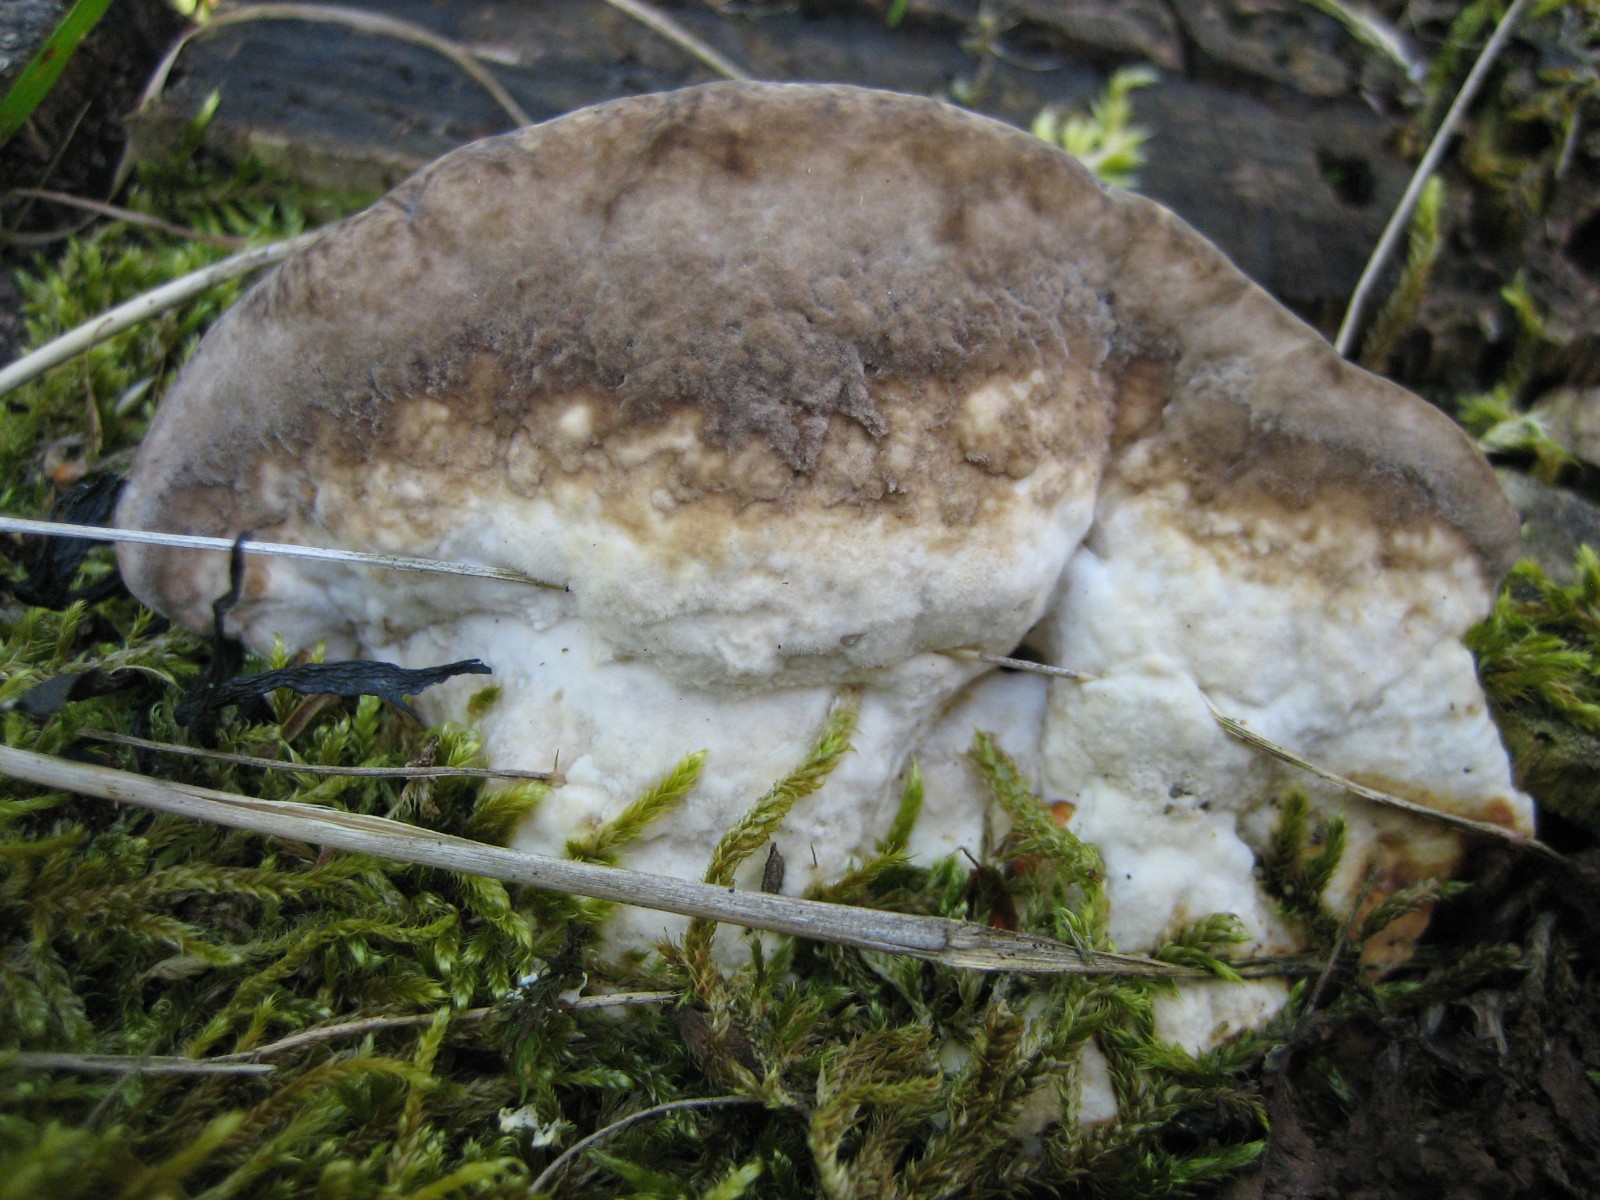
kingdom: Fungi
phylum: Basidiomycota
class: Agaricomycetes
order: Polyporales
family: Fomitopsidaceae
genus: Daedalea
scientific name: Daedalea quercina
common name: ege-labyrintsvamp
